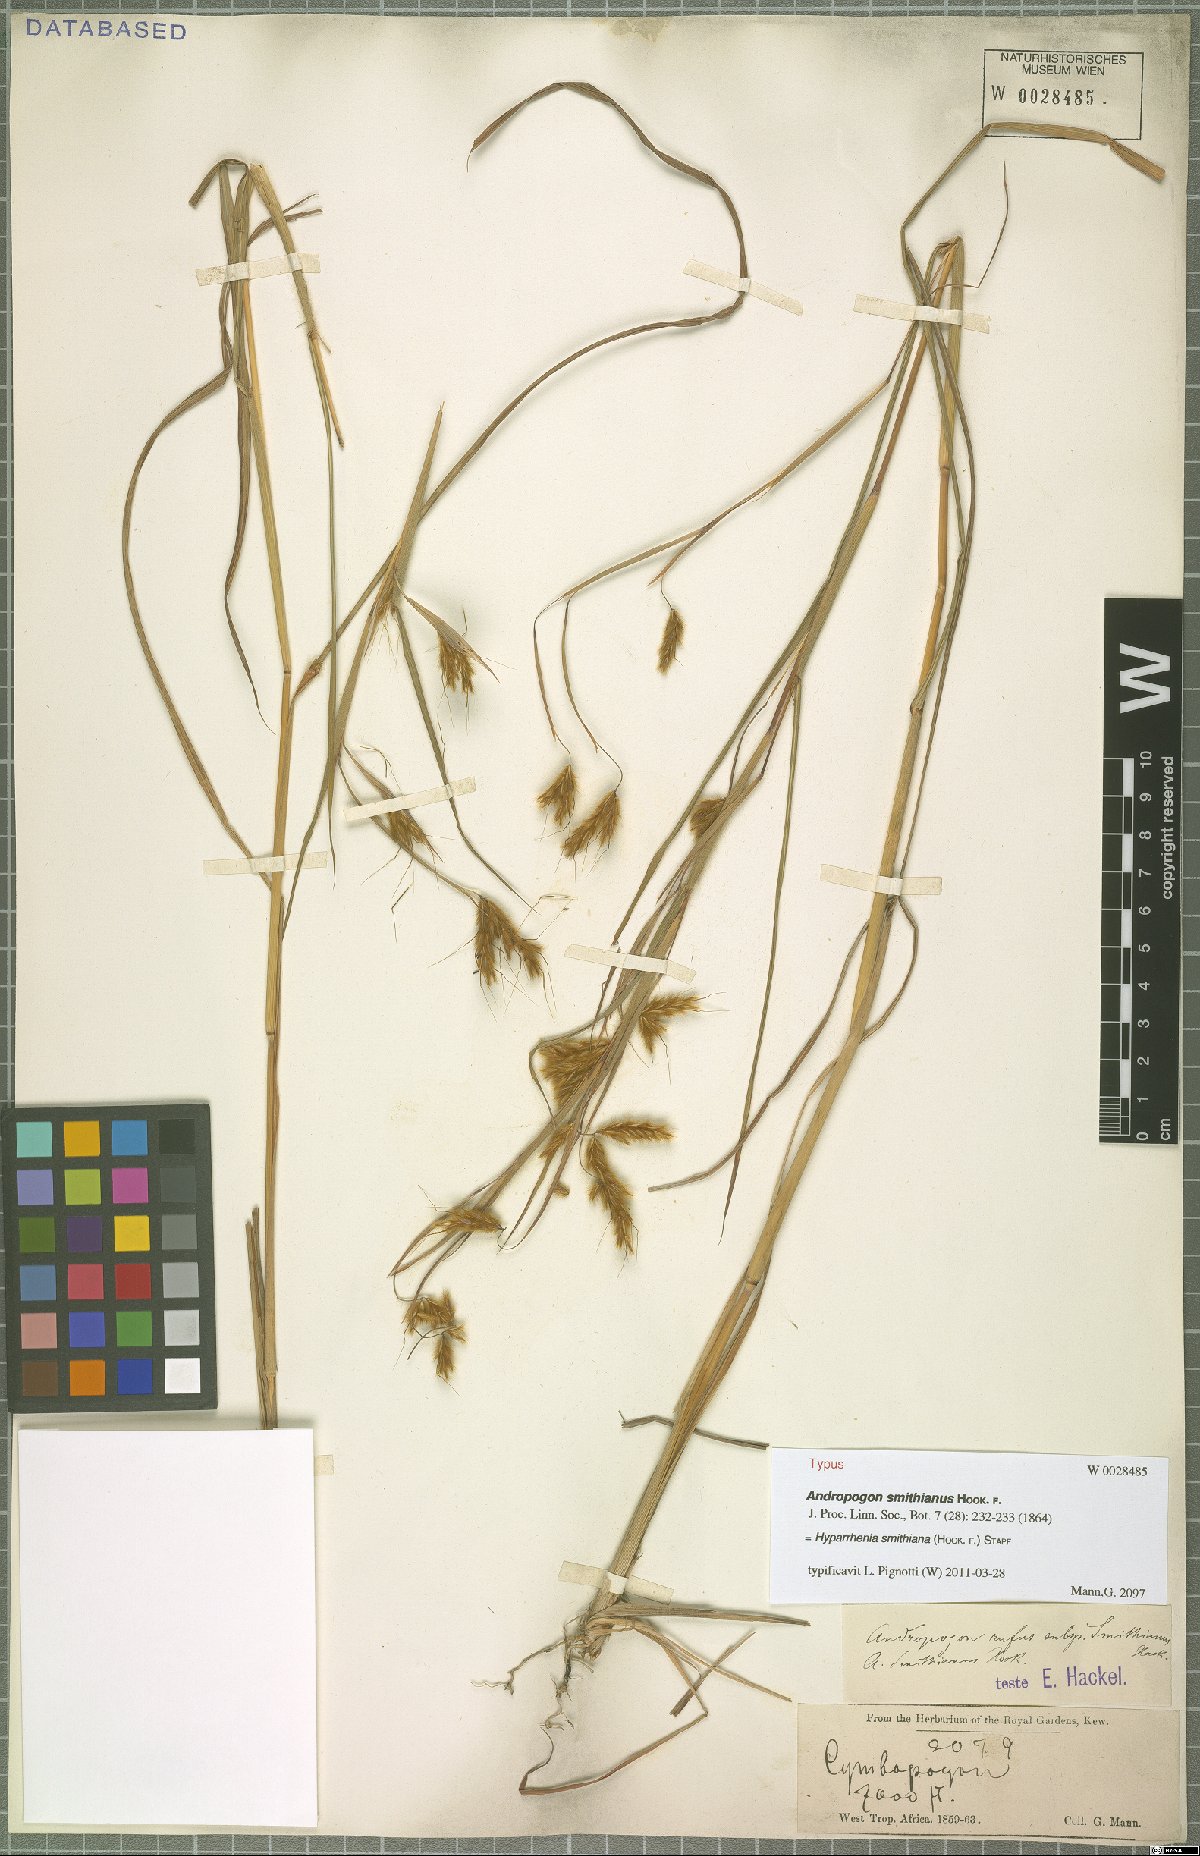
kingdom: Plantae
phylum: Tracheophyta
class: Liliopsida
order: Poales
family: Poaceae
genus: Hyparrhenia
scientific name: Hyparrhenia smithiana
